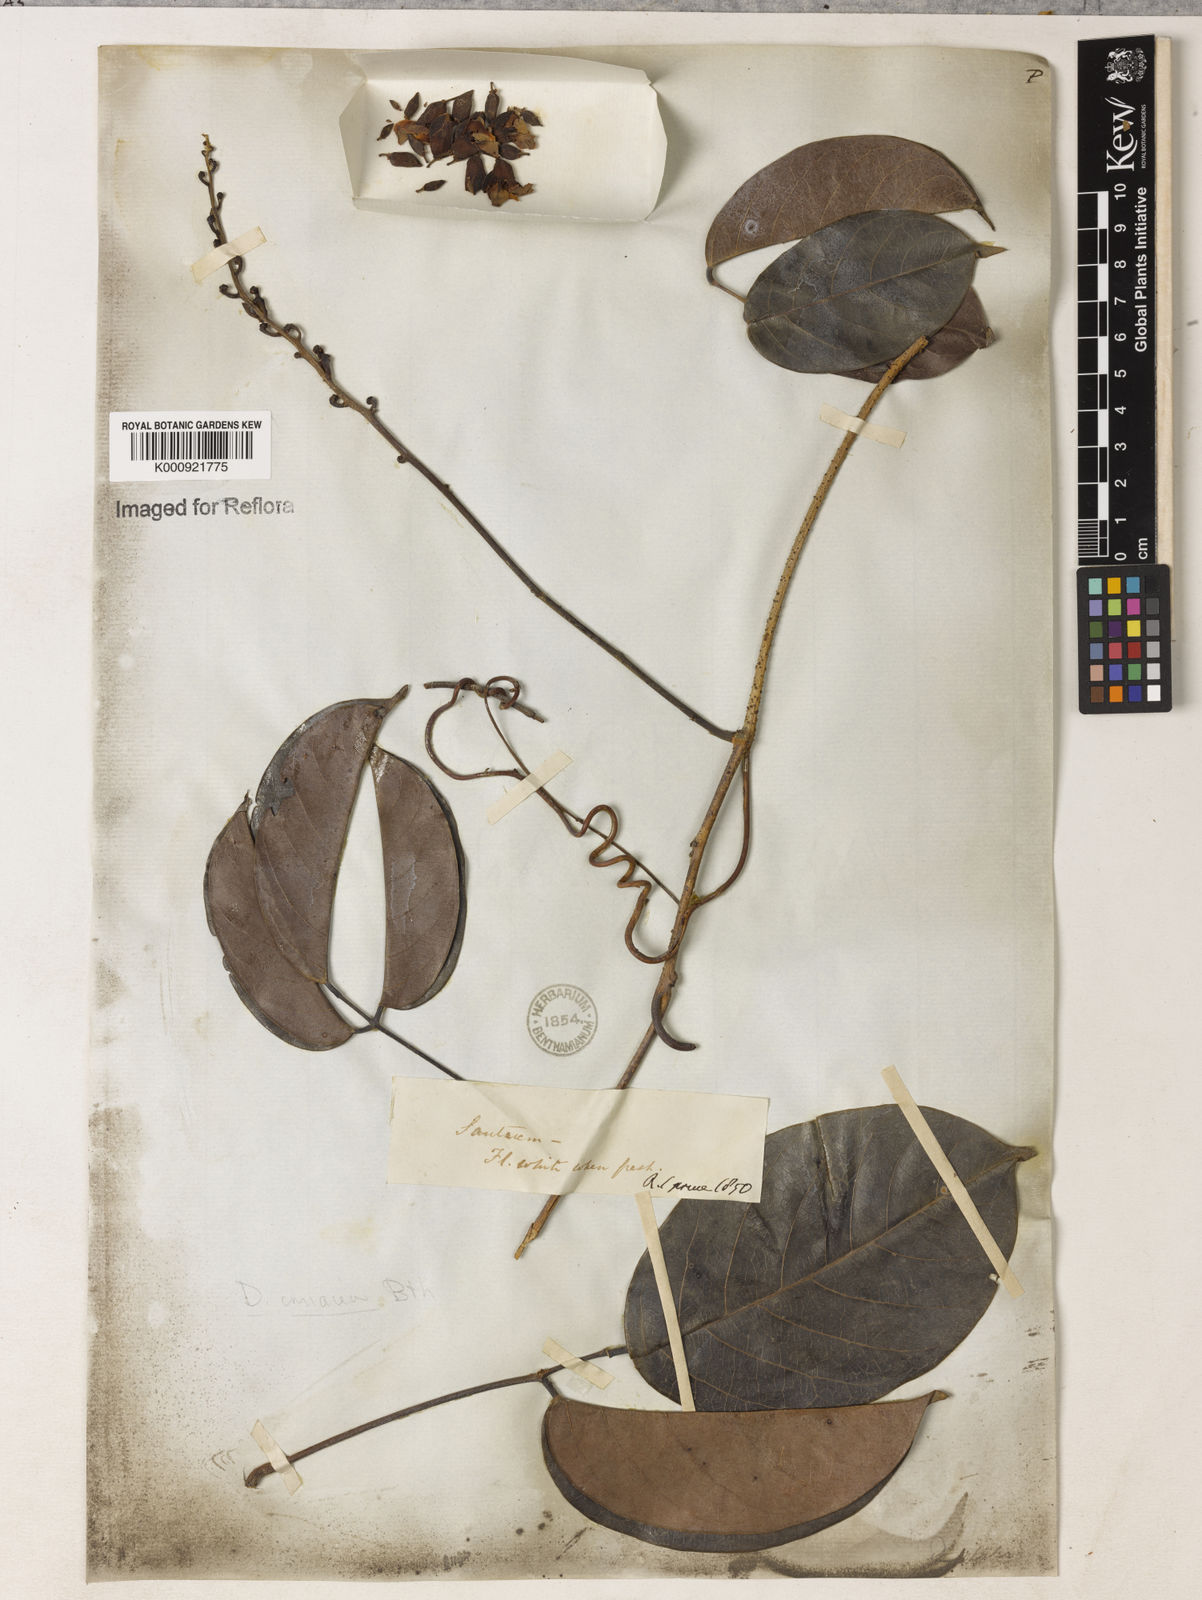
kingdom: Plantae
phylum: Tracheophyta
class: Magnoliopsida
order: Fabales
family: Fabaceae
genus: Macropsychanthus
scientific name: Macropsychanthus glaber
